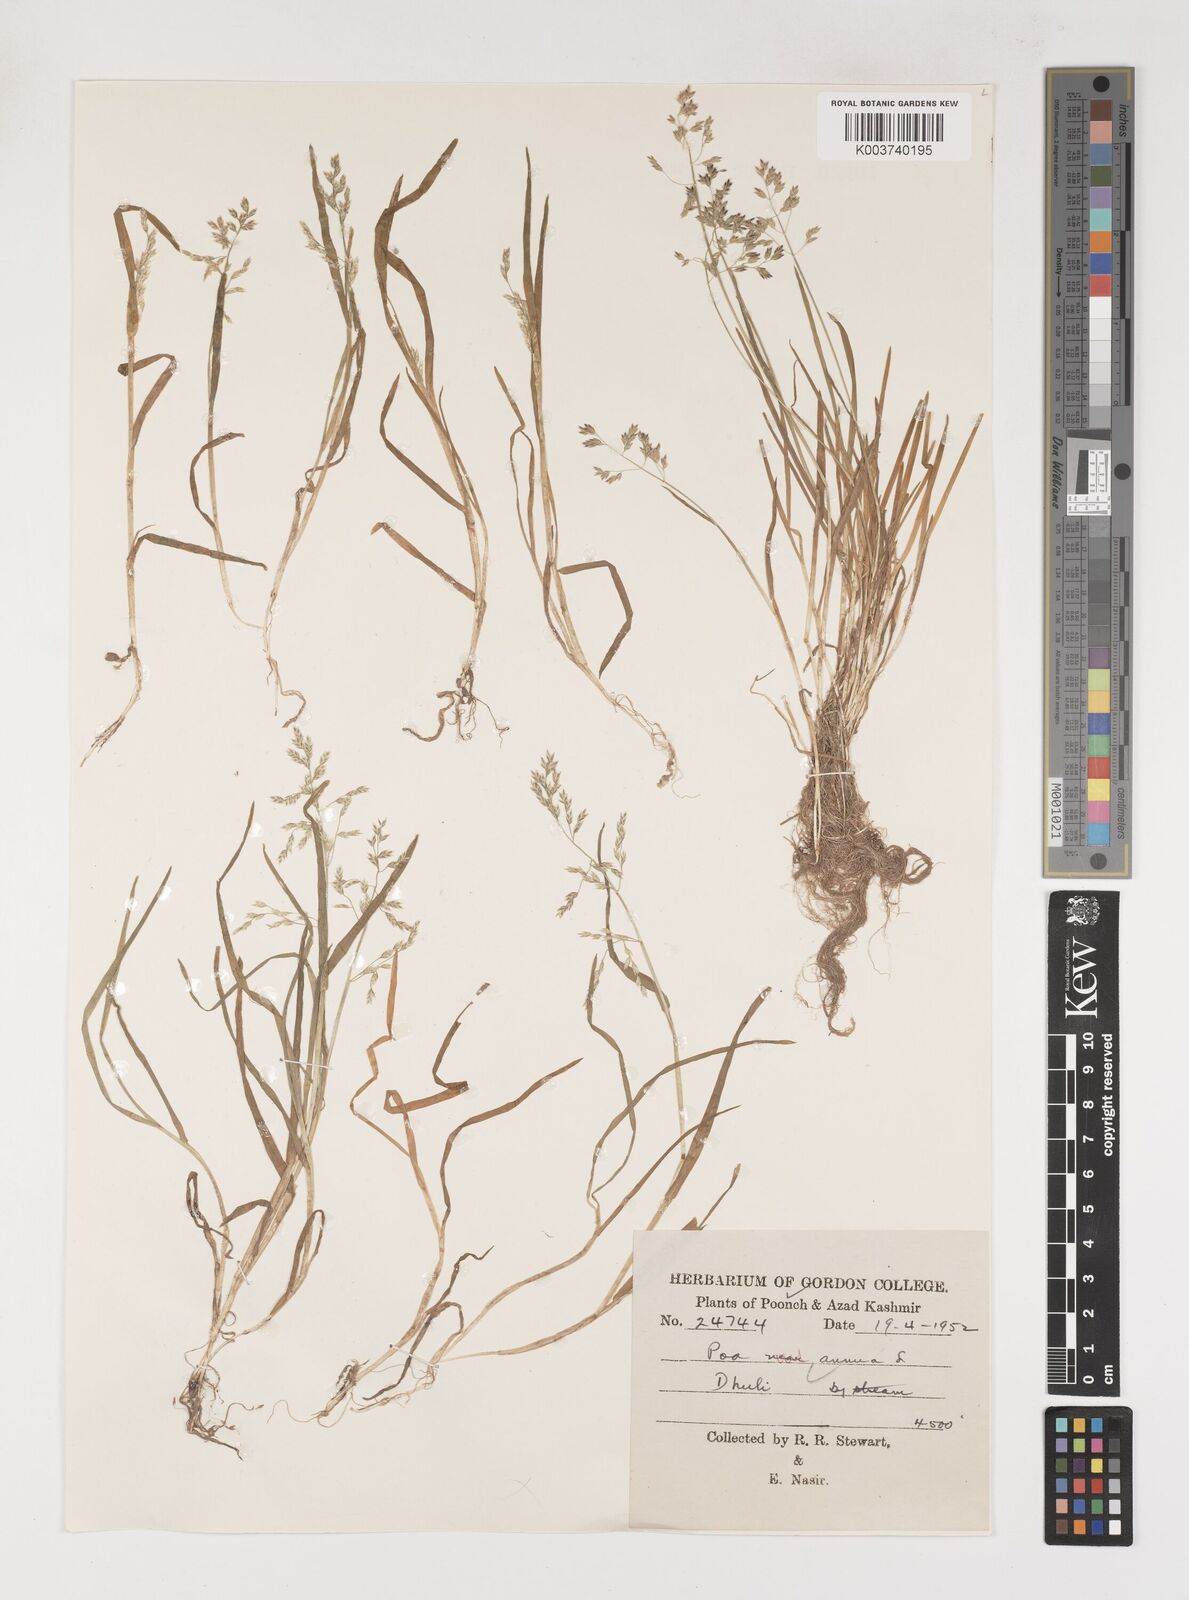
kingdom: Plantae
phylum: Tracheophyta
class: Liliopsida
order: Poales
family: Poaceae
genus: Poa
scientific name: Poa annua
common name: Annual bluegrass
